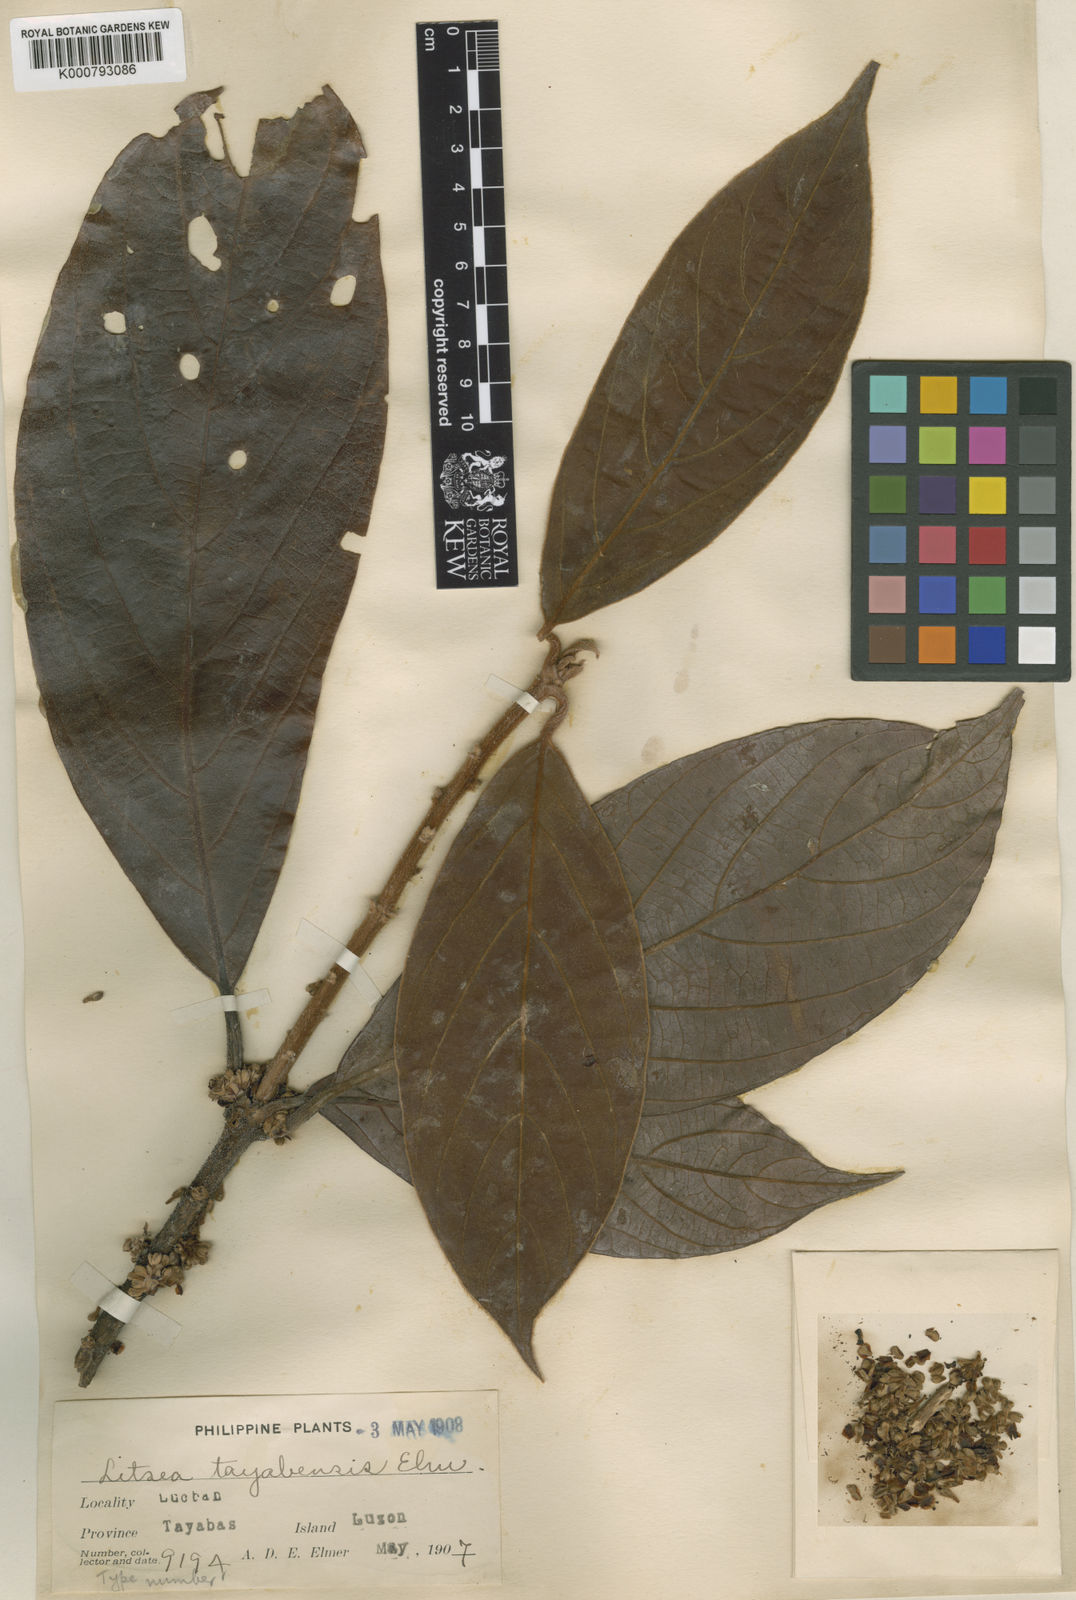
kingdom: Plantae
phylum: Tracheophyta
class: Magnoliopsida
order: Laurales
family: Lauraceae
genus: Actinodaphne
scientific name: Actinodaphne tayabensis
